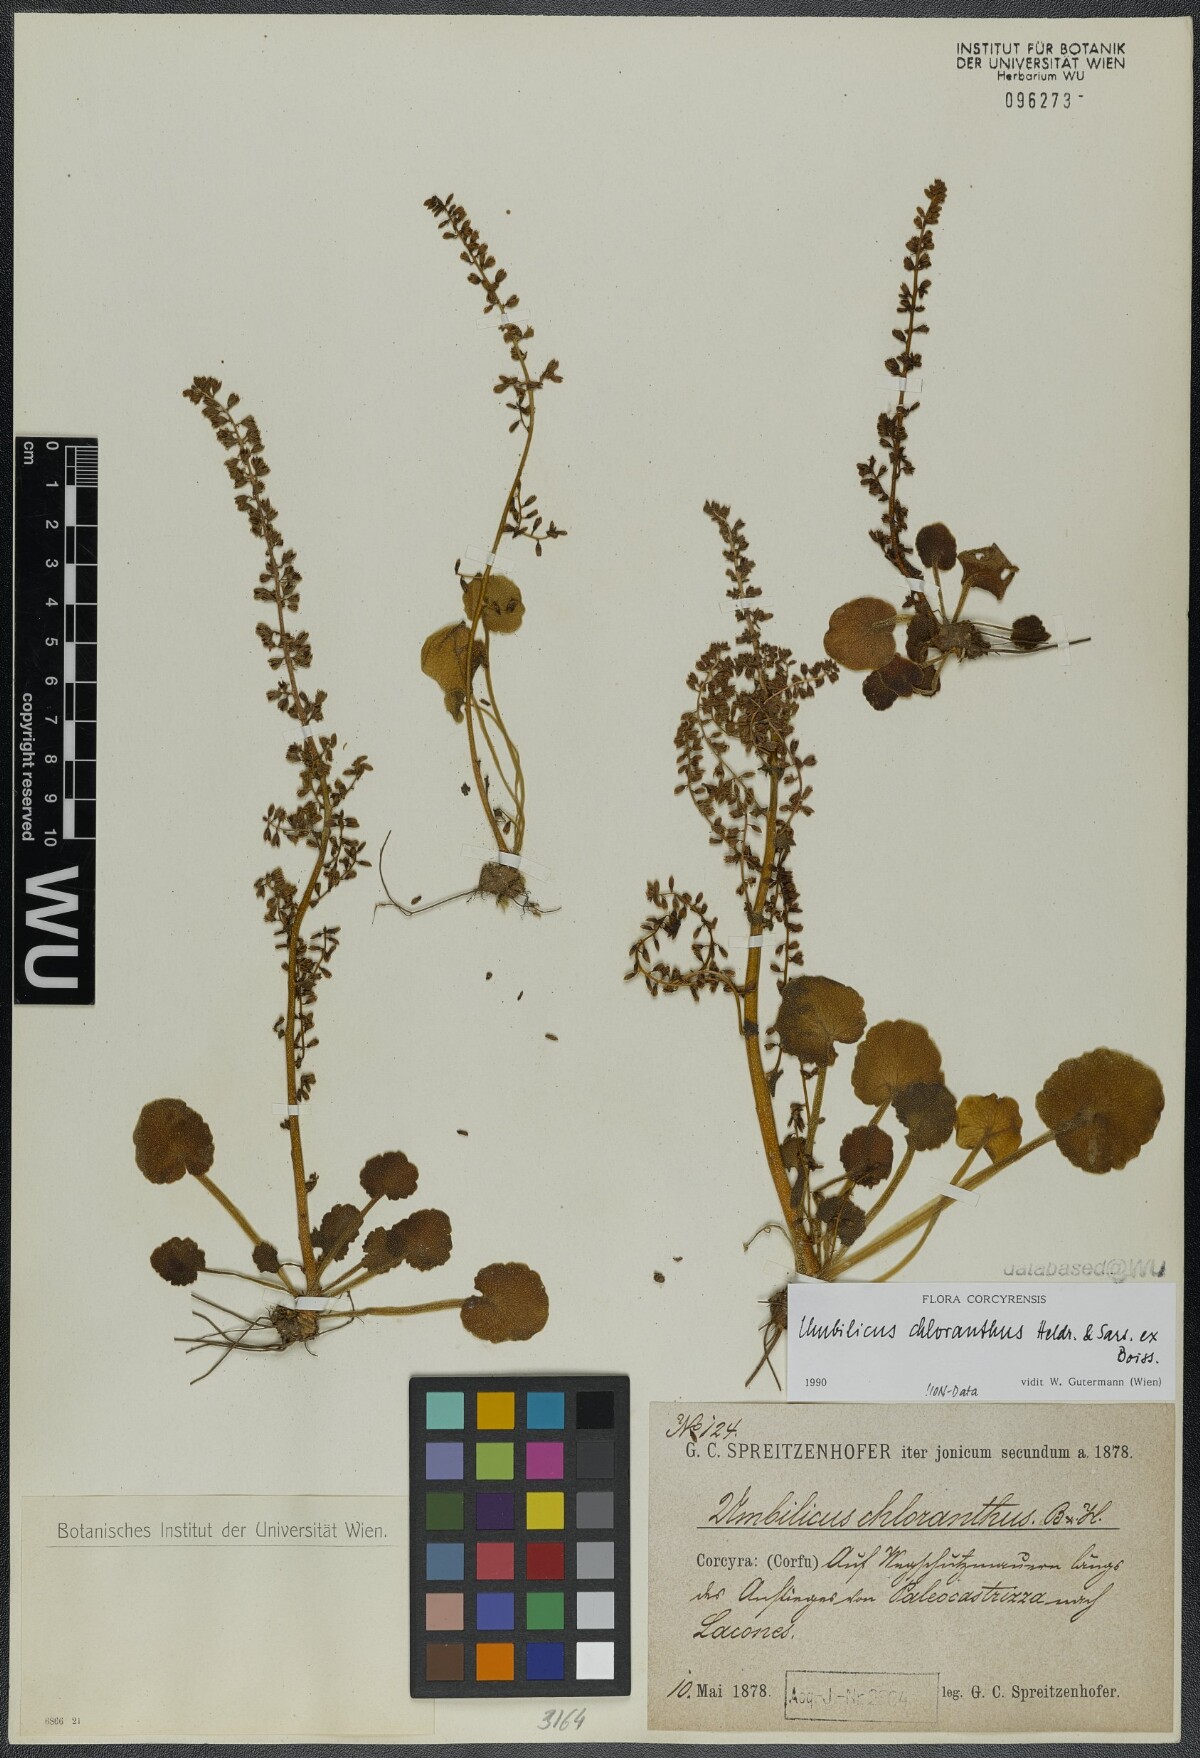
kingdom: Plantae
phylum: Tracheophyta
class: Magnoliopsida
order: Saxifragales
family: Crassulaceae
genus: Umbilicus
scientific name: Umbilicus chloranthus
